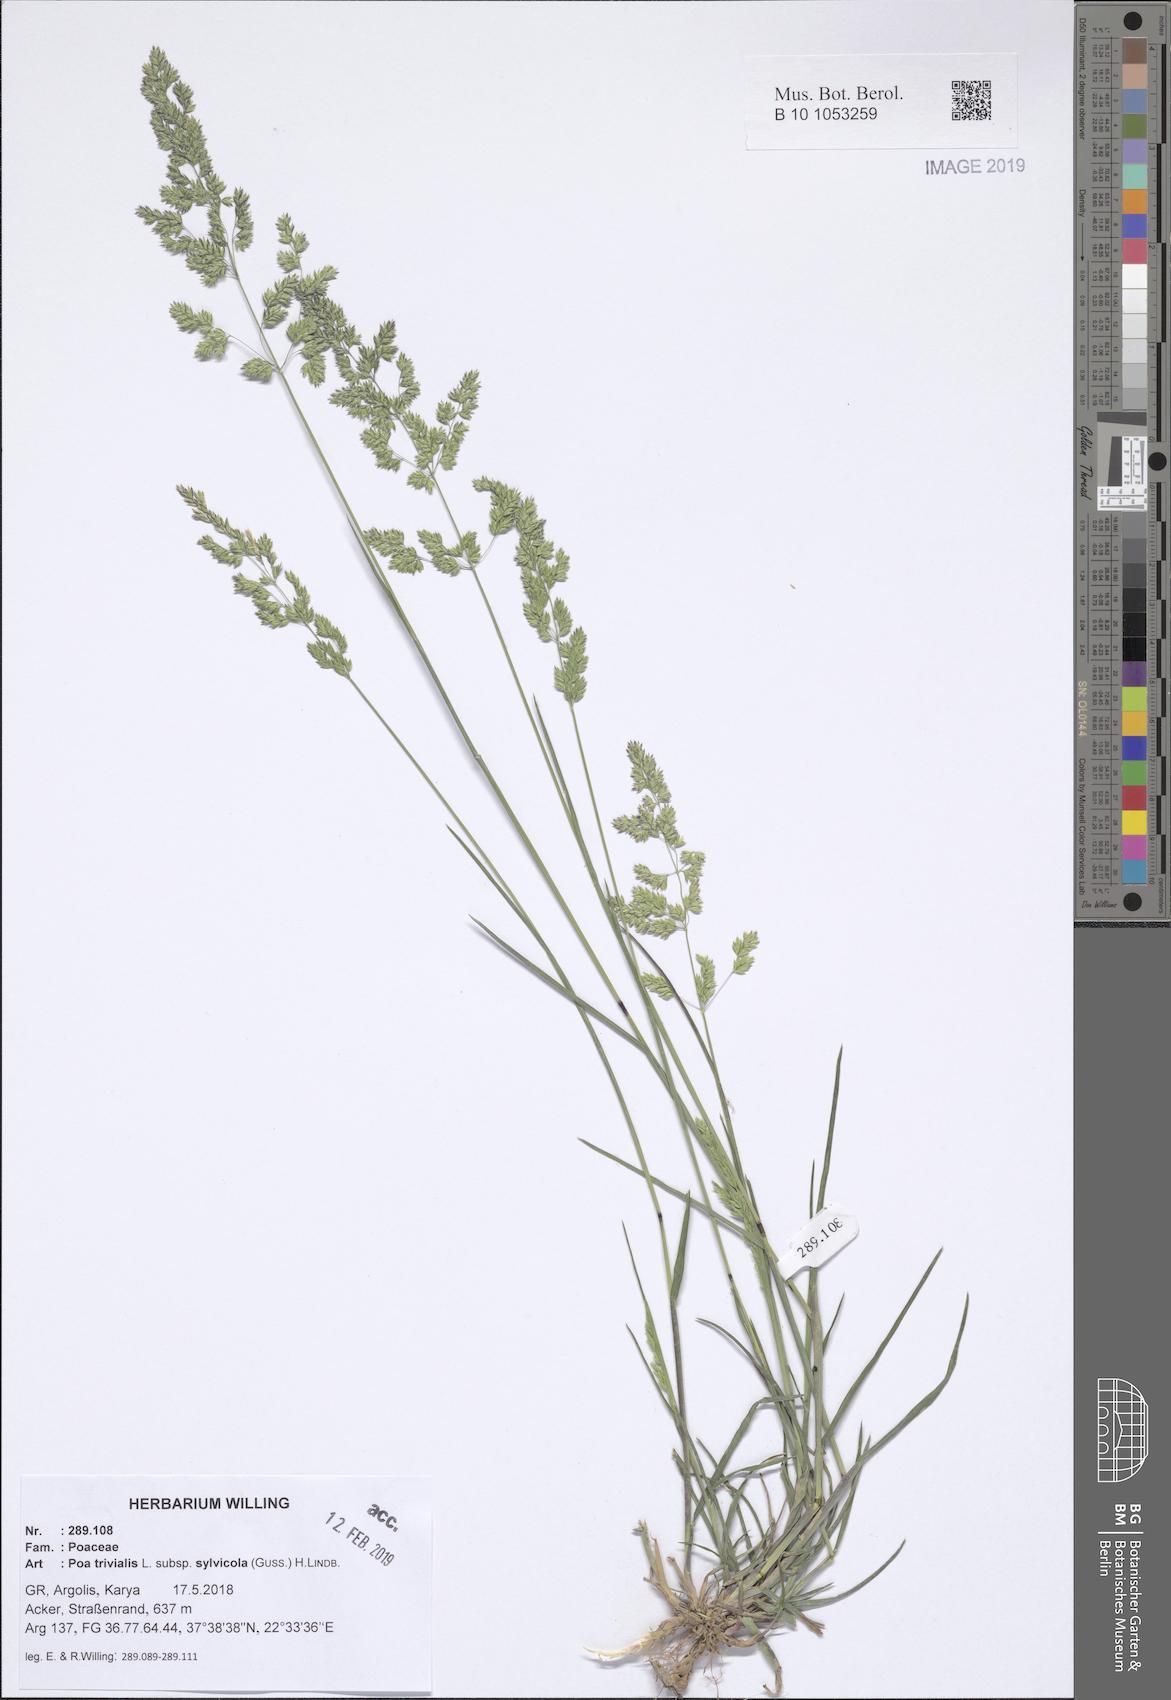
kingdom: Plantae
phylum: Tracheophyta
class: Liliopsida
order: Poales
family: Poaceae
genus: Poa
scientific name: Poa trivialis
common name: Rough bluegrass
